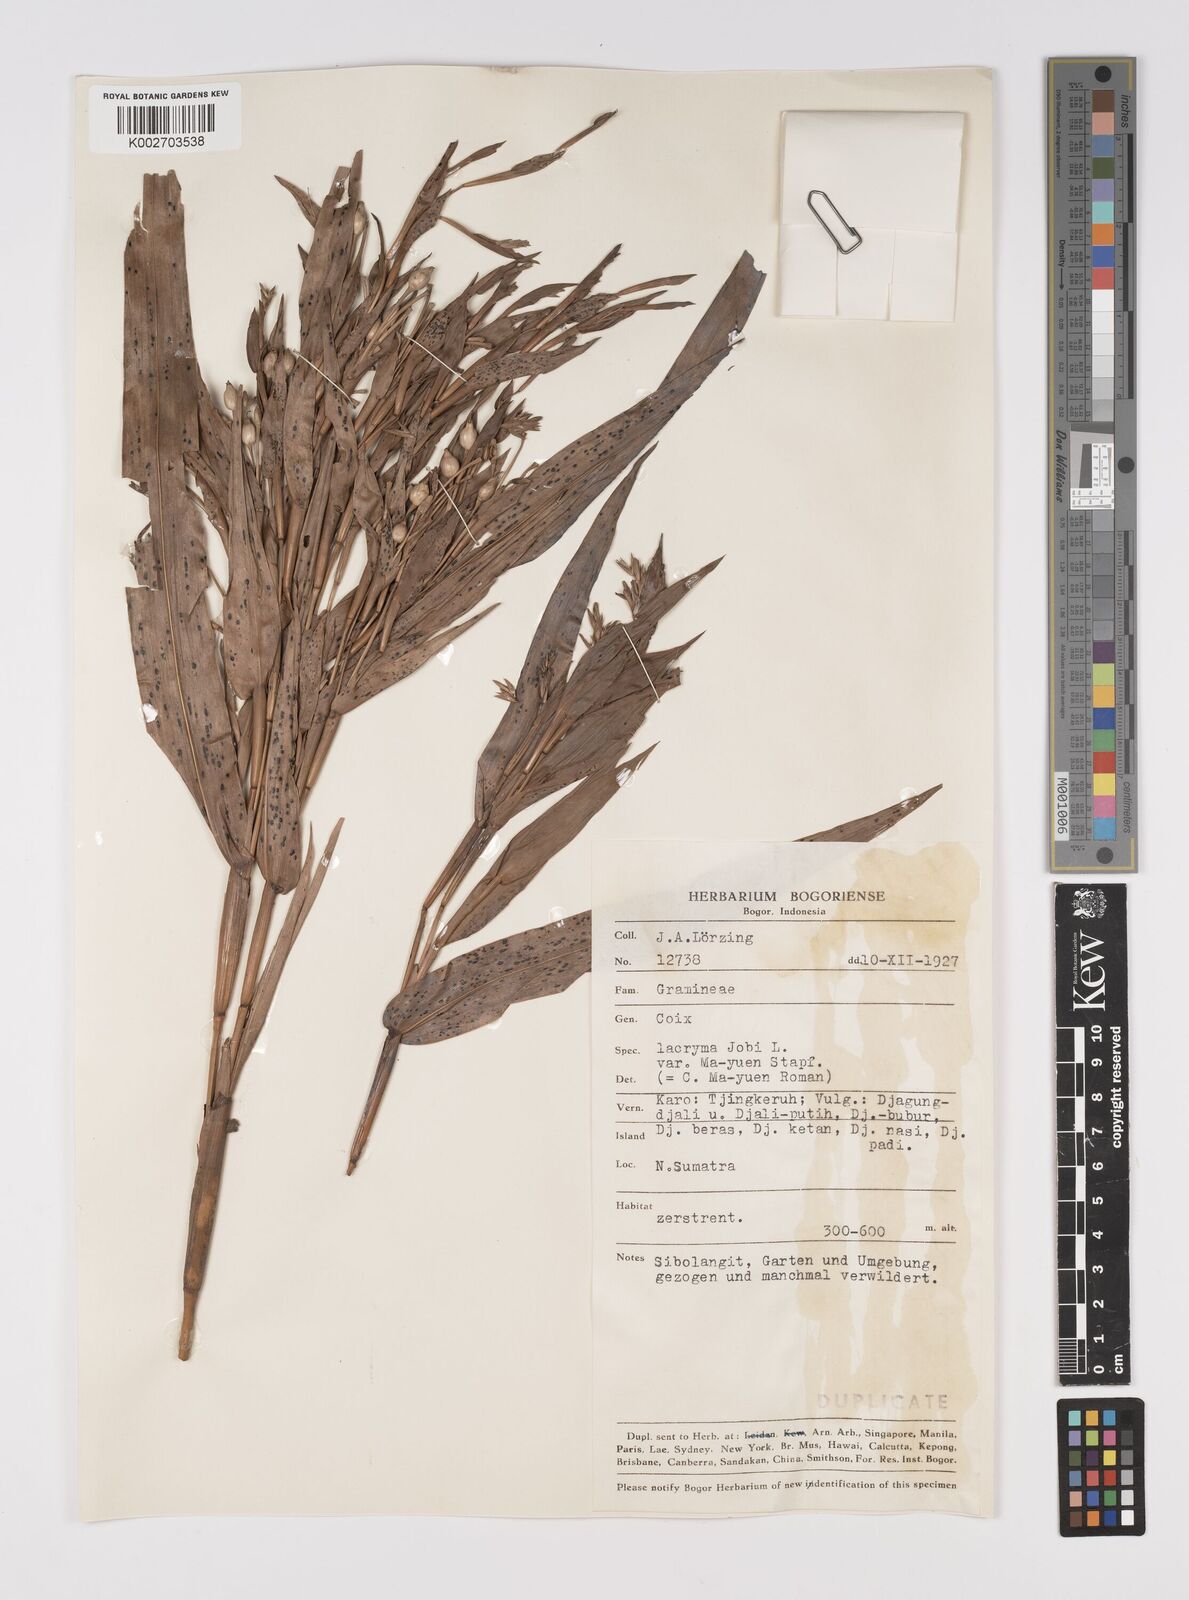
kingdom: Plantae
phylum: Tracheophyta
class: Liliopsida
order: Poales
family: Poaceae
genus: Coix
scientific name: Coix lacryma-jobi
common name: Job's tears
